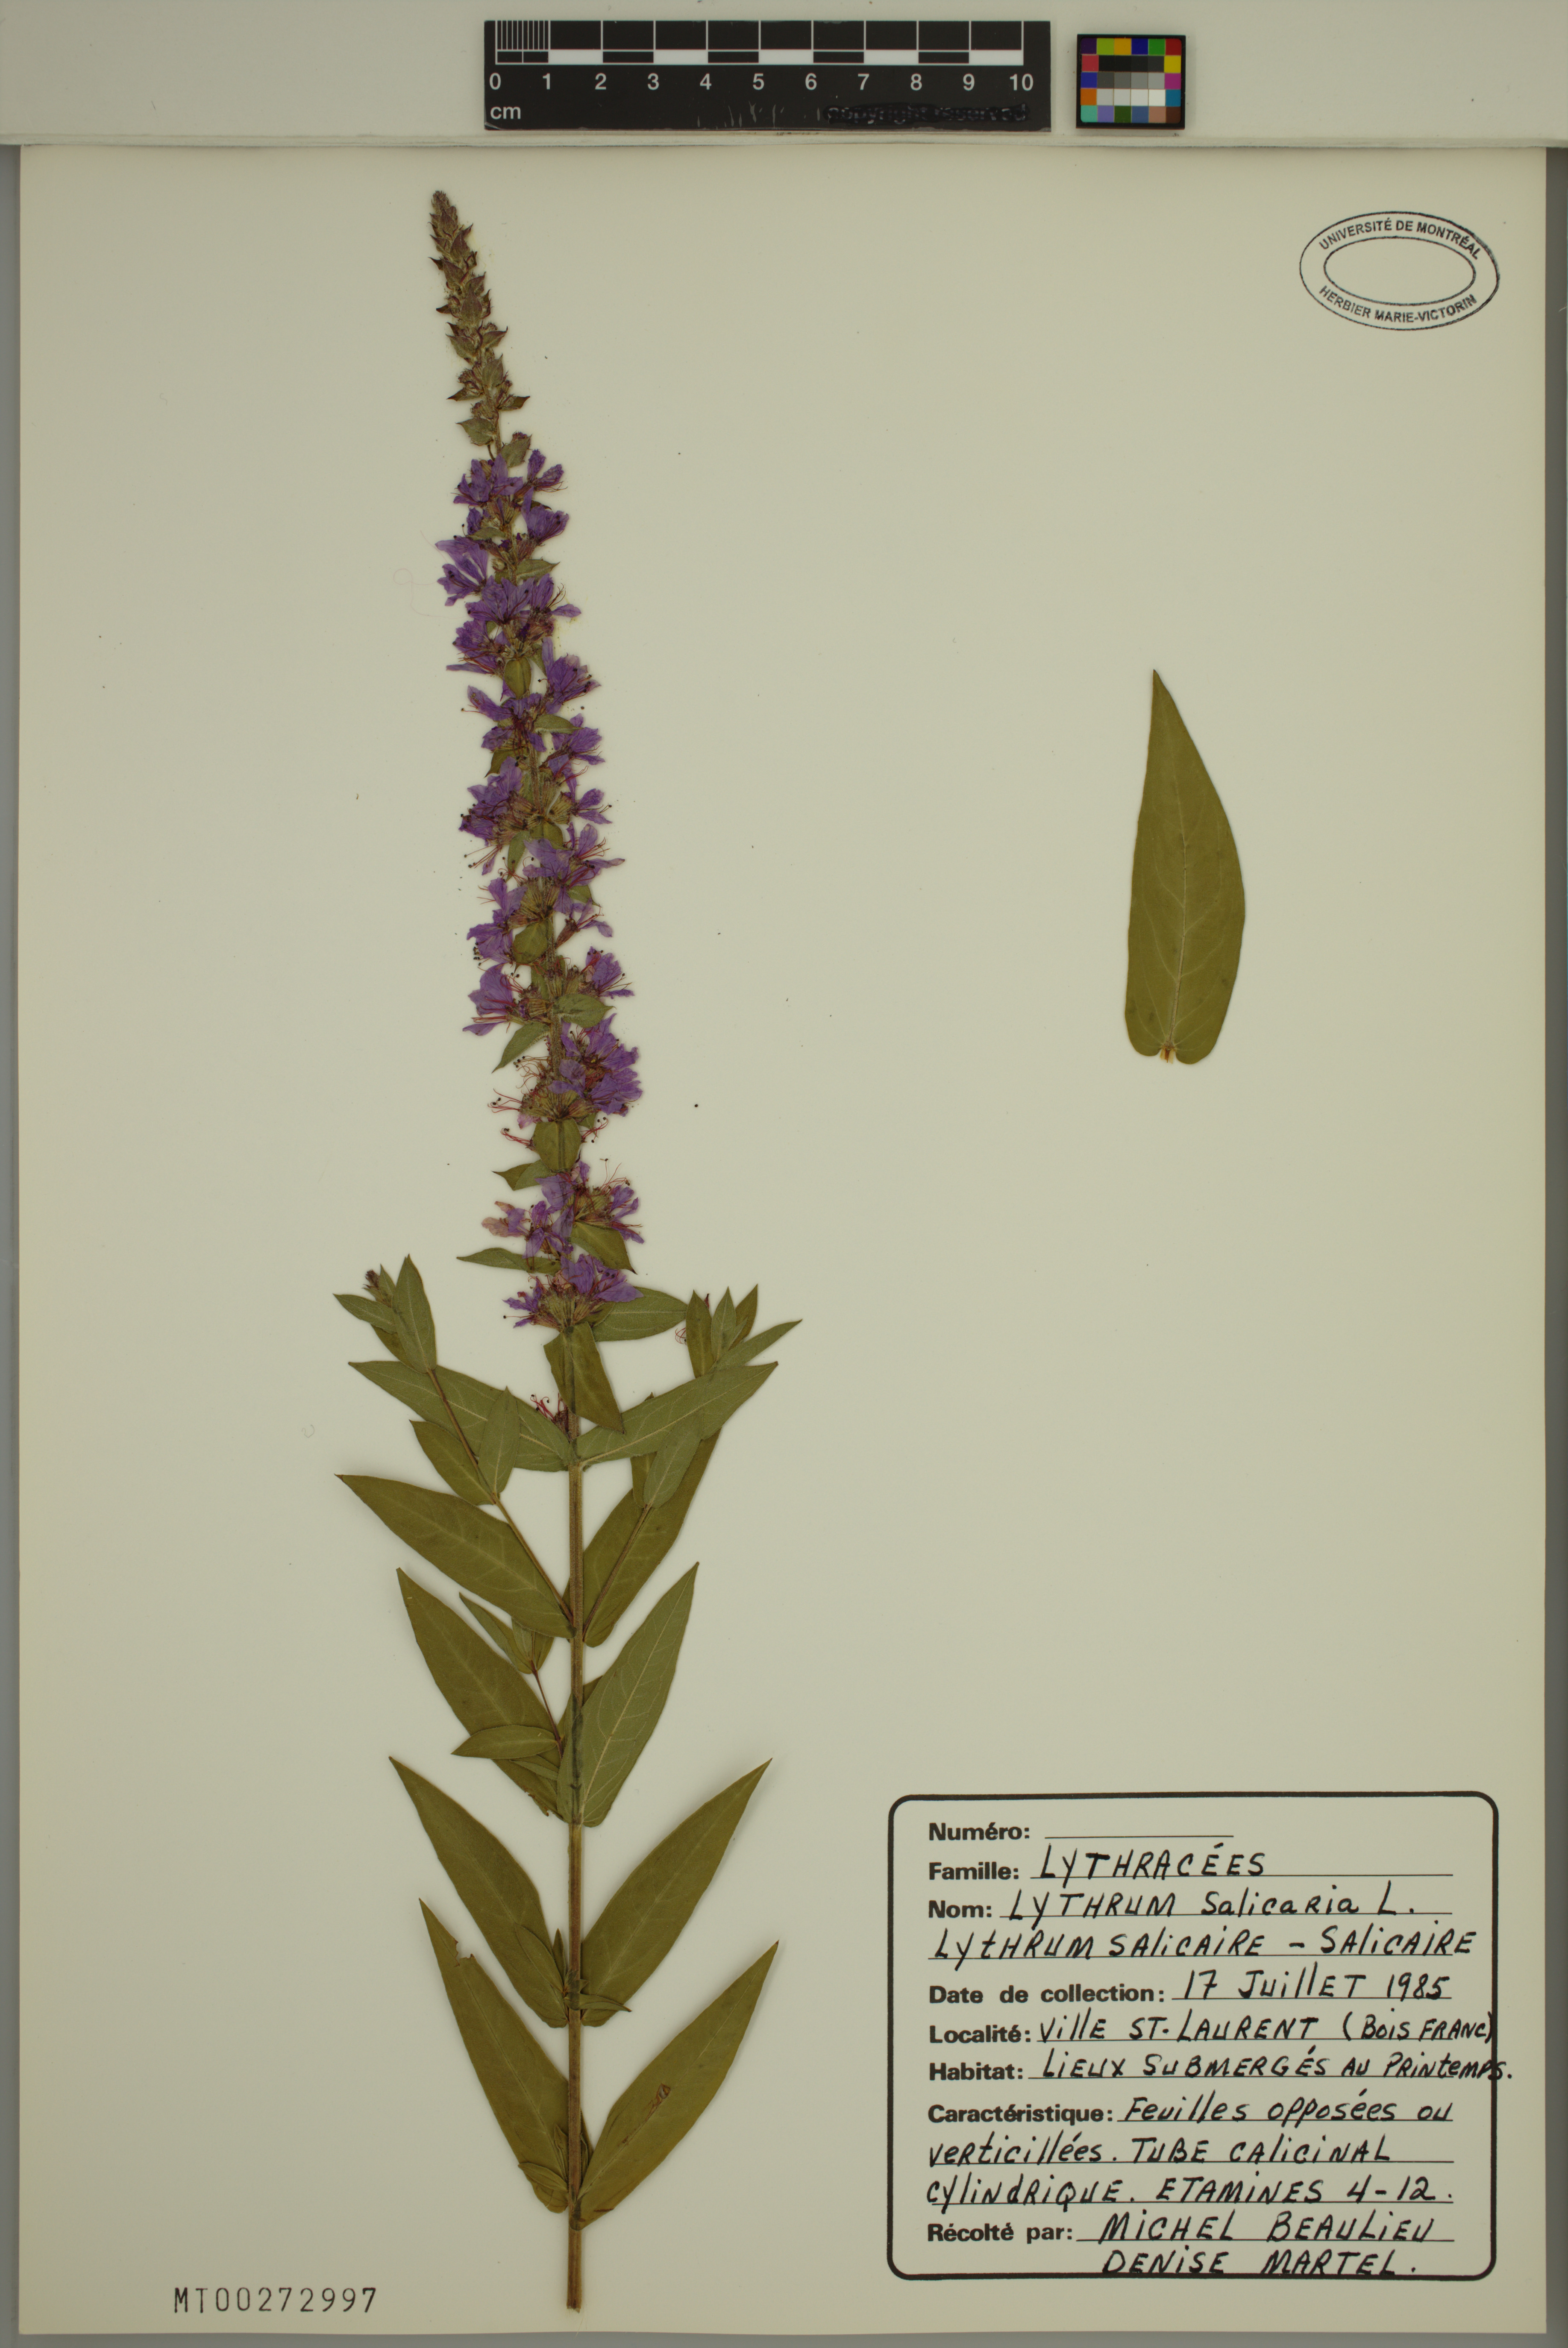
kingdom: Plantae
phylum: Tracheophyta
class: Magnoliopsida
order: Myrtales
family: Lythraceae
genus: Lythrum
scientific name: Lythrum salicaria
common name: Purple loosestrife
